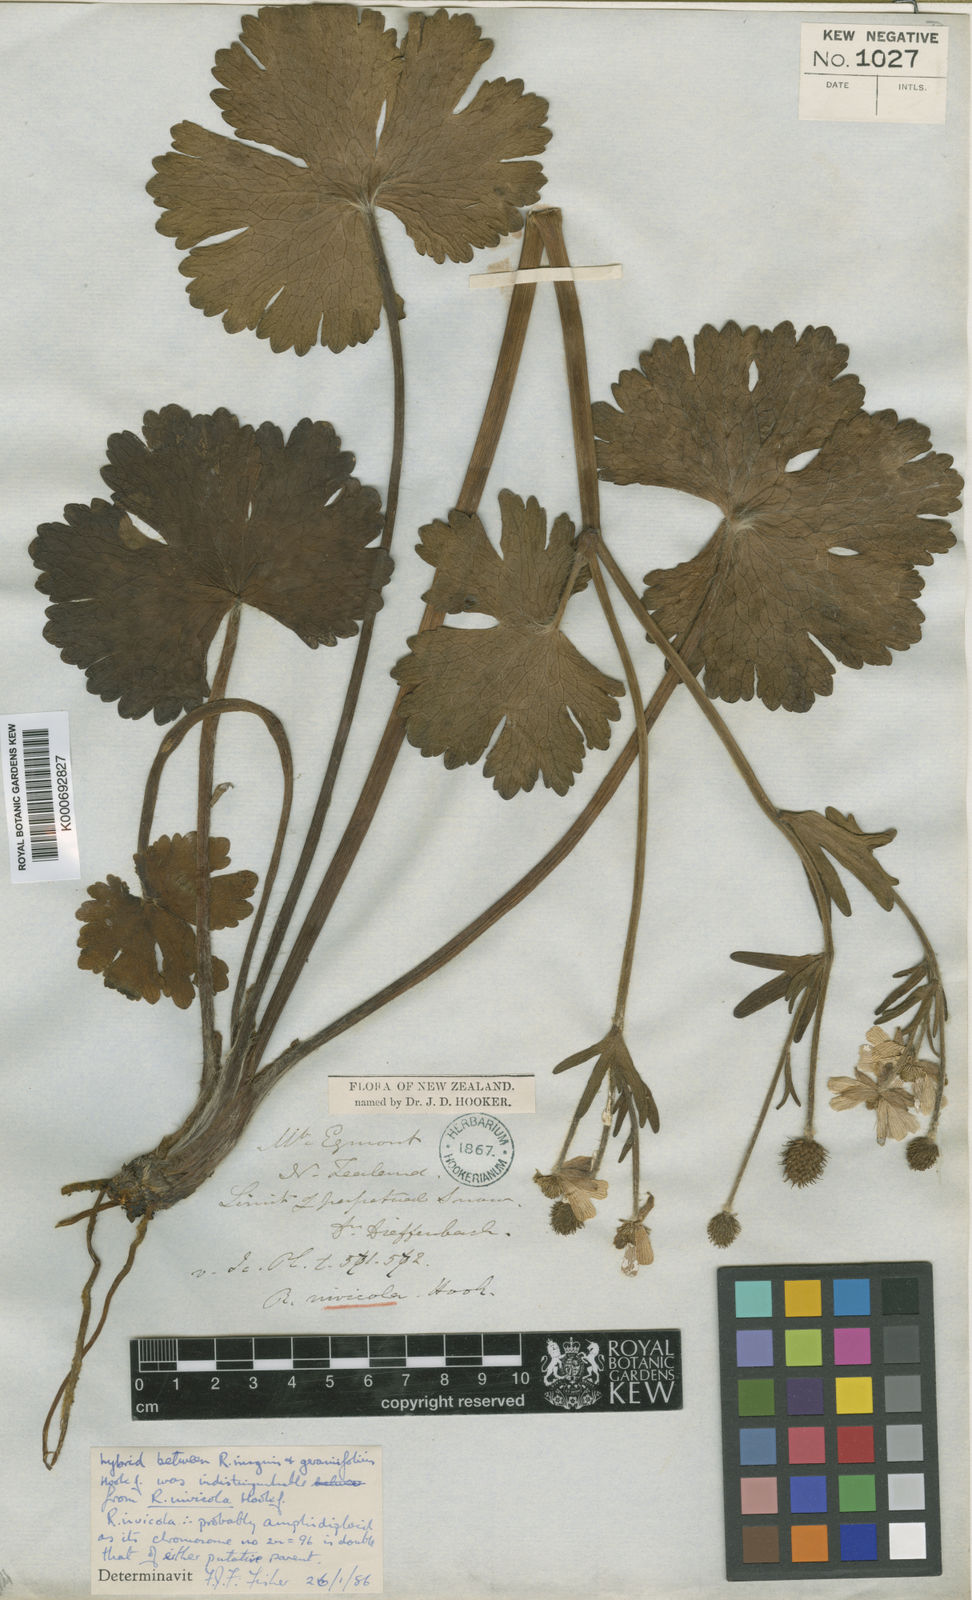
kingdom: Plantae
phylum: Tracheophyta
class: Magnoliopsida
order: Ranunculales
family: Ranunculaceae
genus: Ranunculus
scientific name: Ranunculus nivicola
